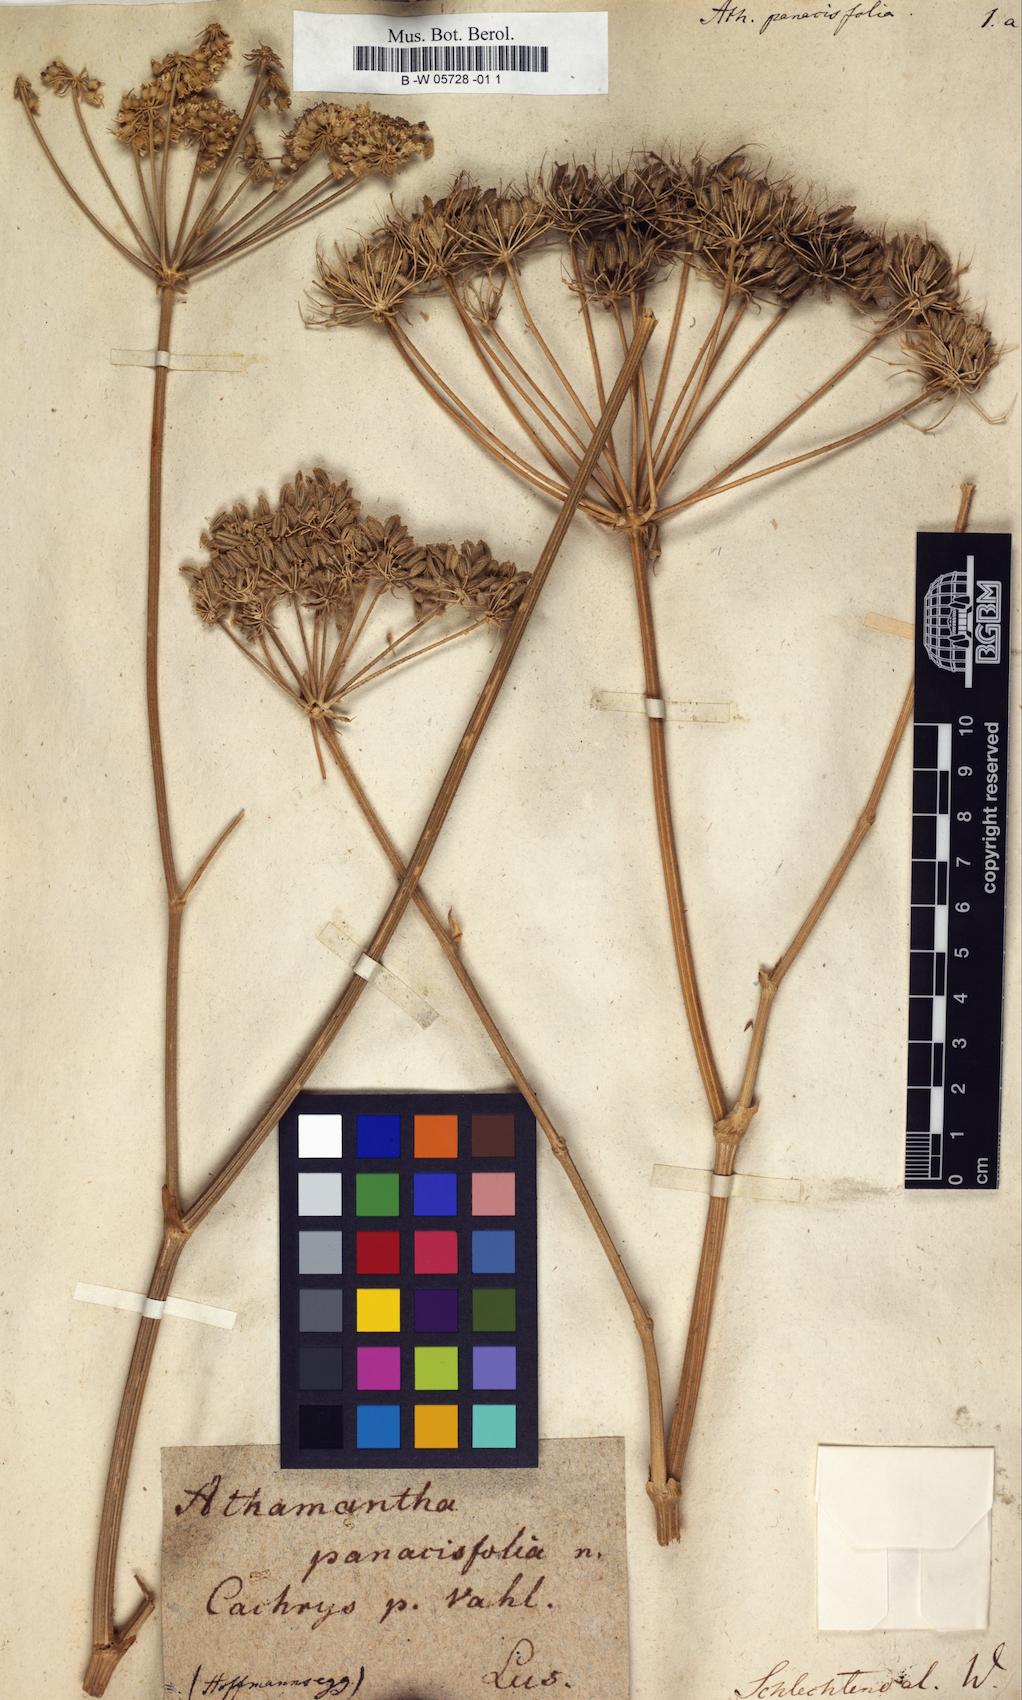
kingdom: Plantae
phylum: Tracheophyta
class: Magnoliopsida
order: Apiales
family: Apiaceae
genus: Magydaris
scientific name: Magydaris
